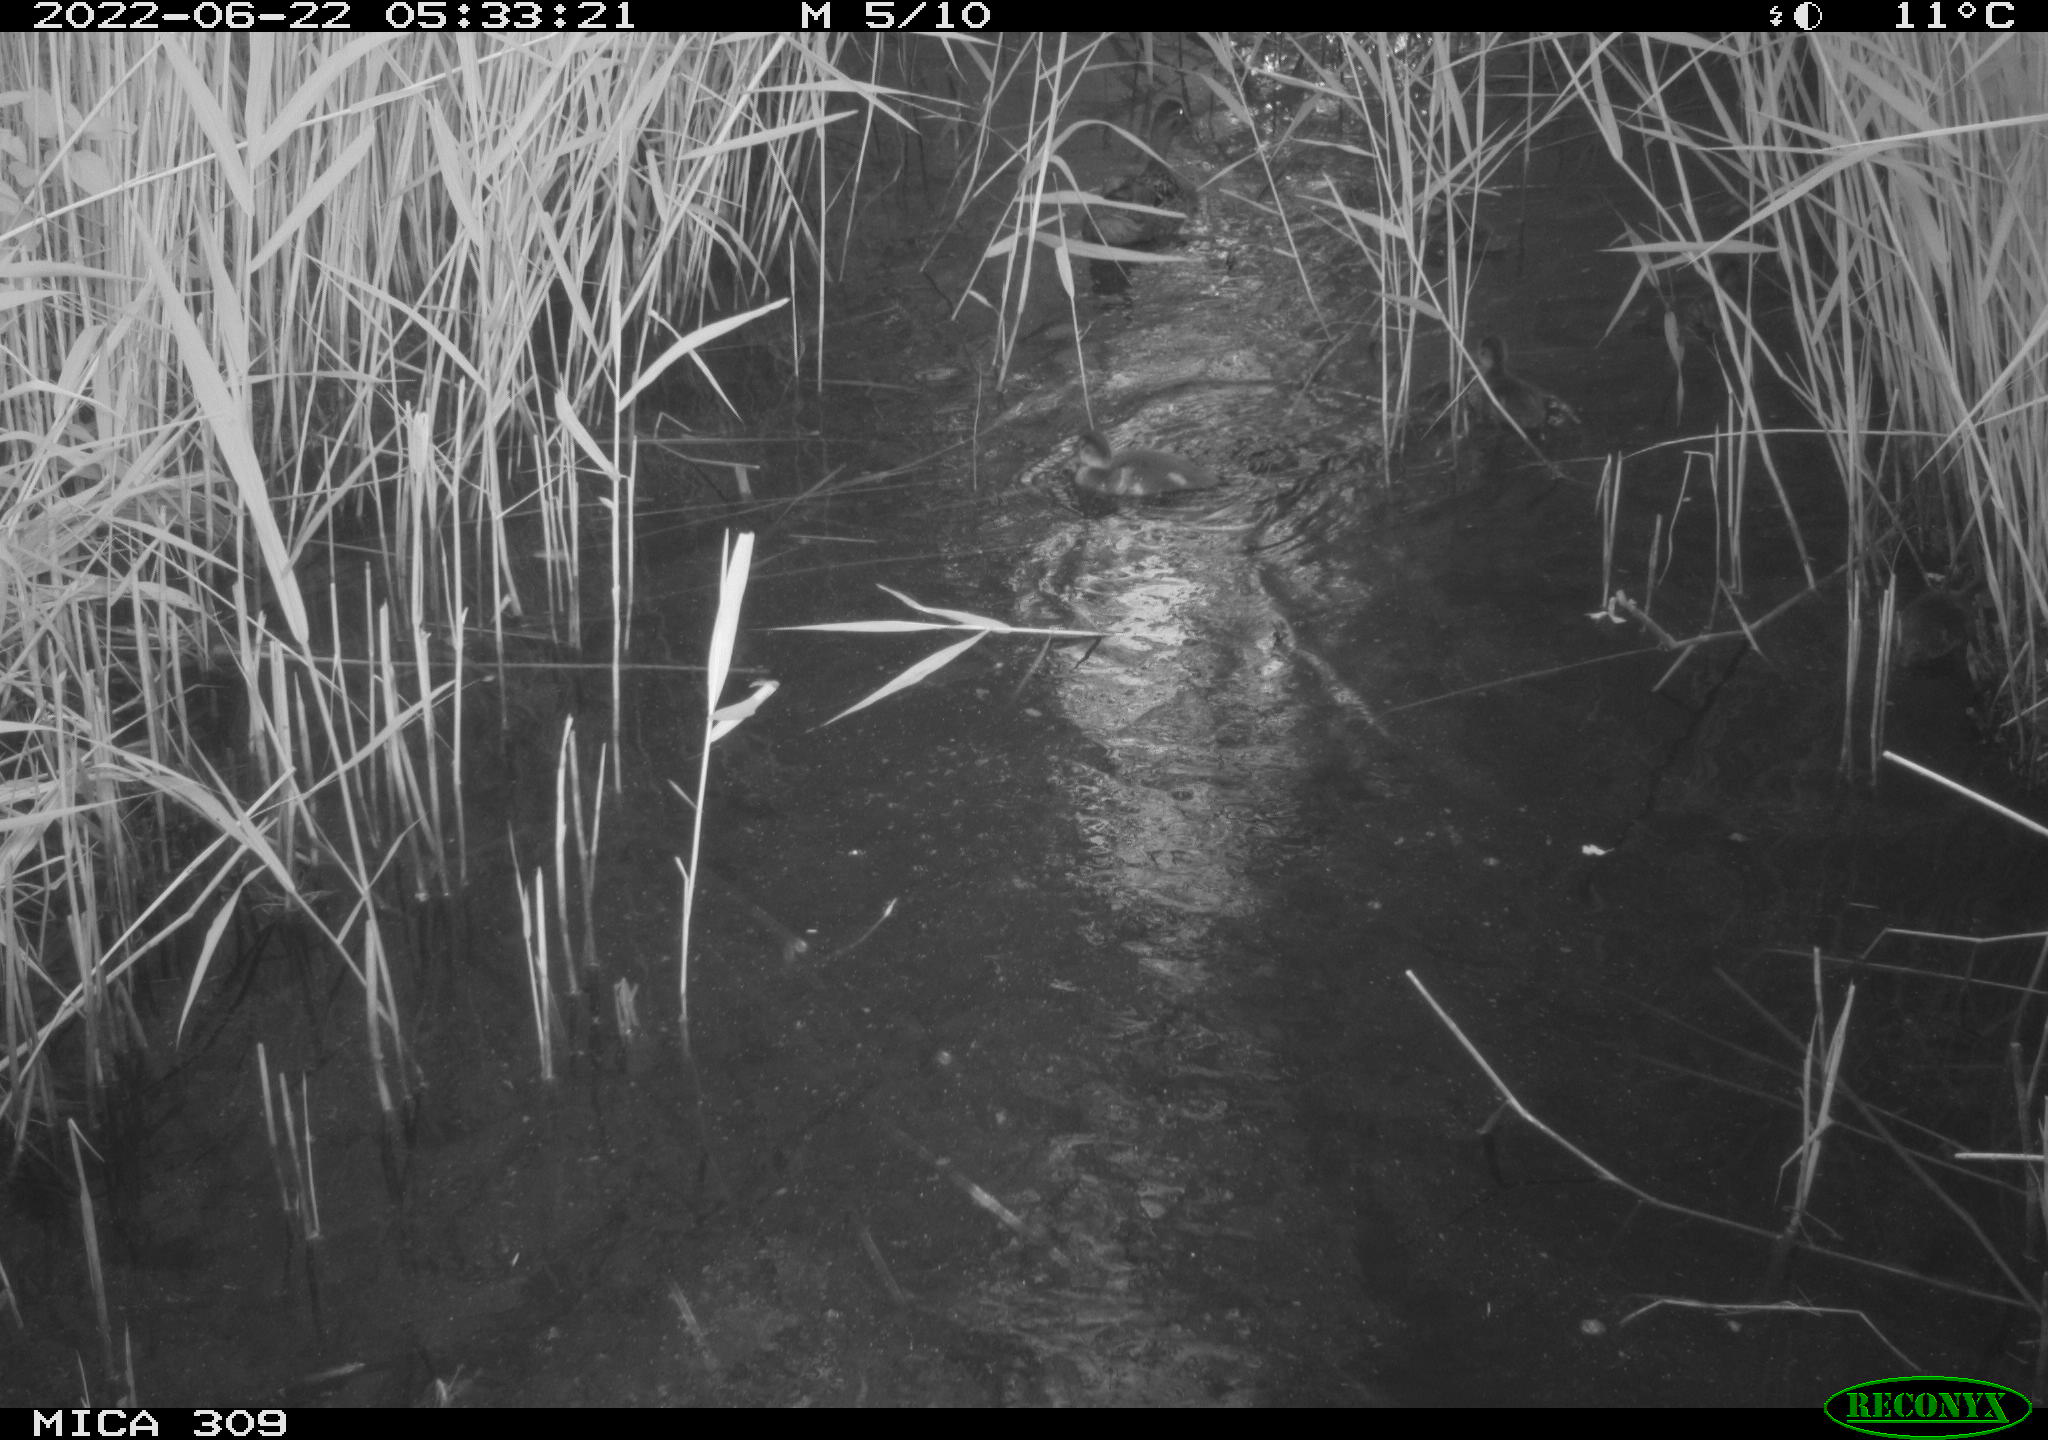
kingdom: Animalia
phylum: Chordata
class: Aves
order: Anseriformes
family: Anatidae
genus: Anas
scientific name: Anas platyrhynchos
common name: Mallard
